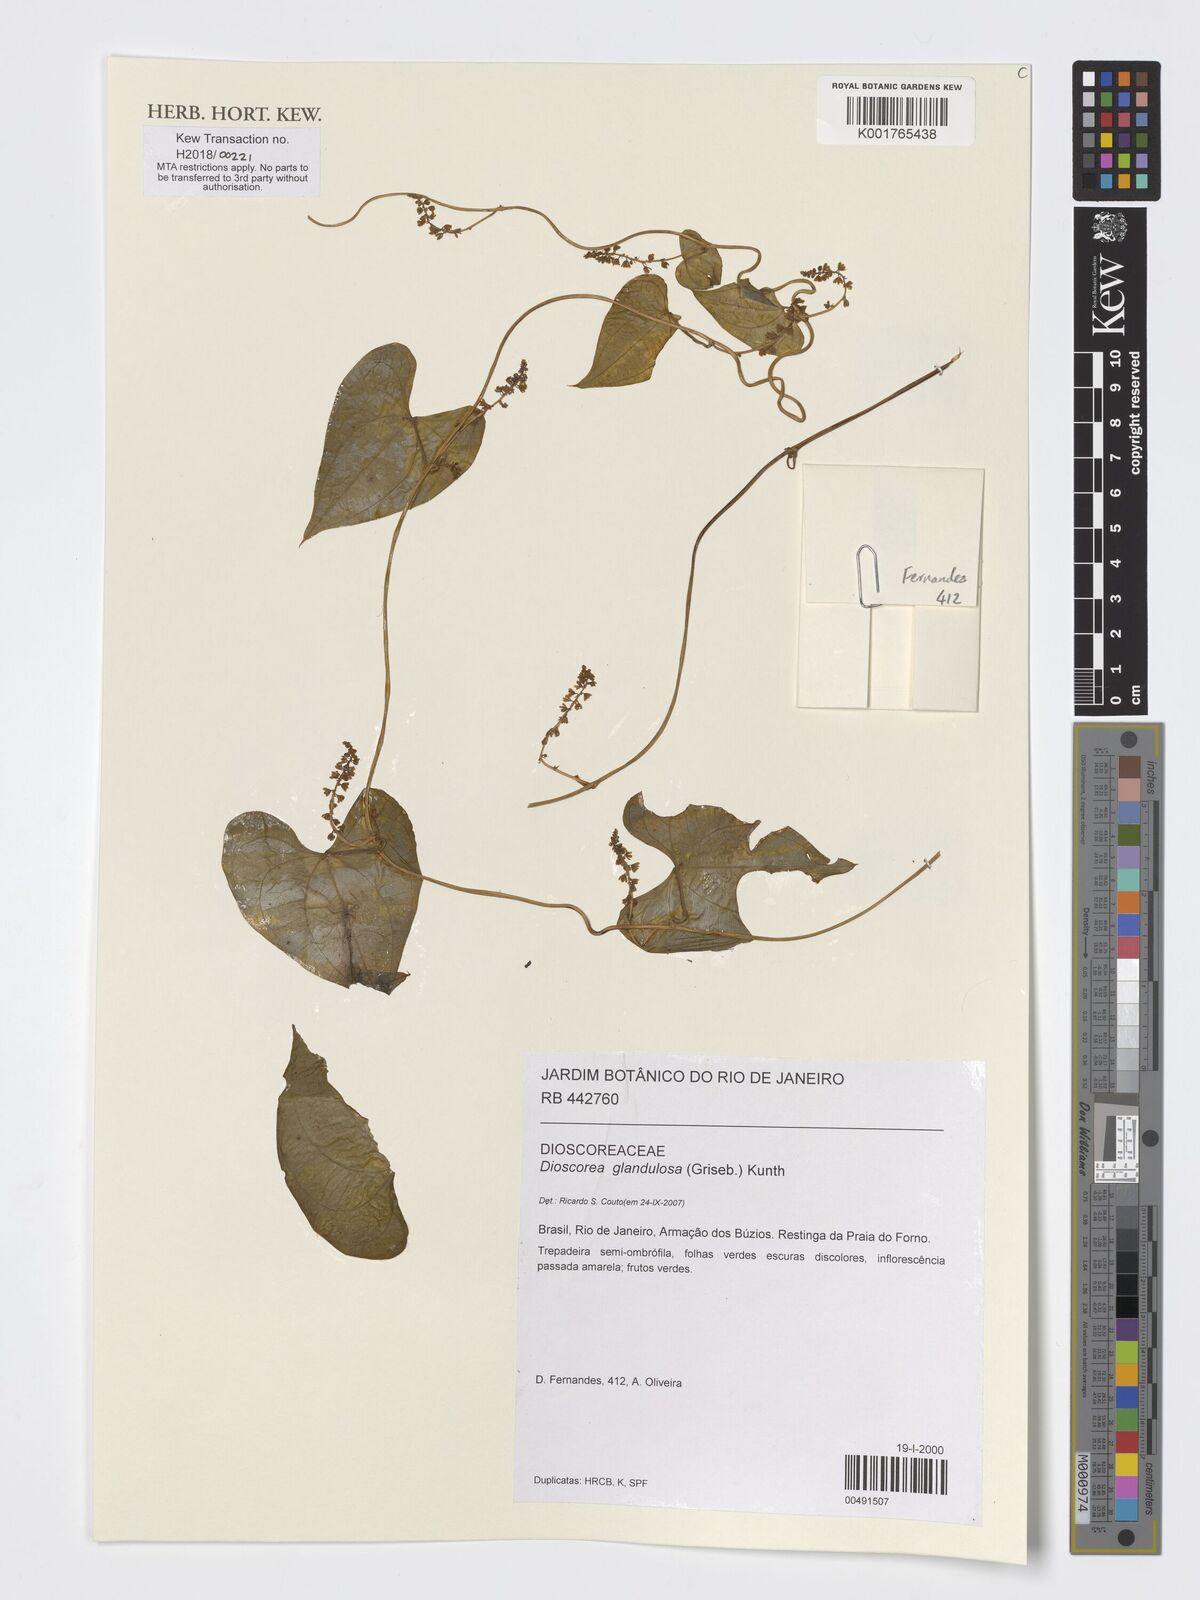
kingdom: Plantae
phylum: Tracheophyta
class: Liliopsida
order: Dioscoreales
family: Dioscoreaceae
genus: Dioscorea
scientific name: Dioscorea glandulosa
